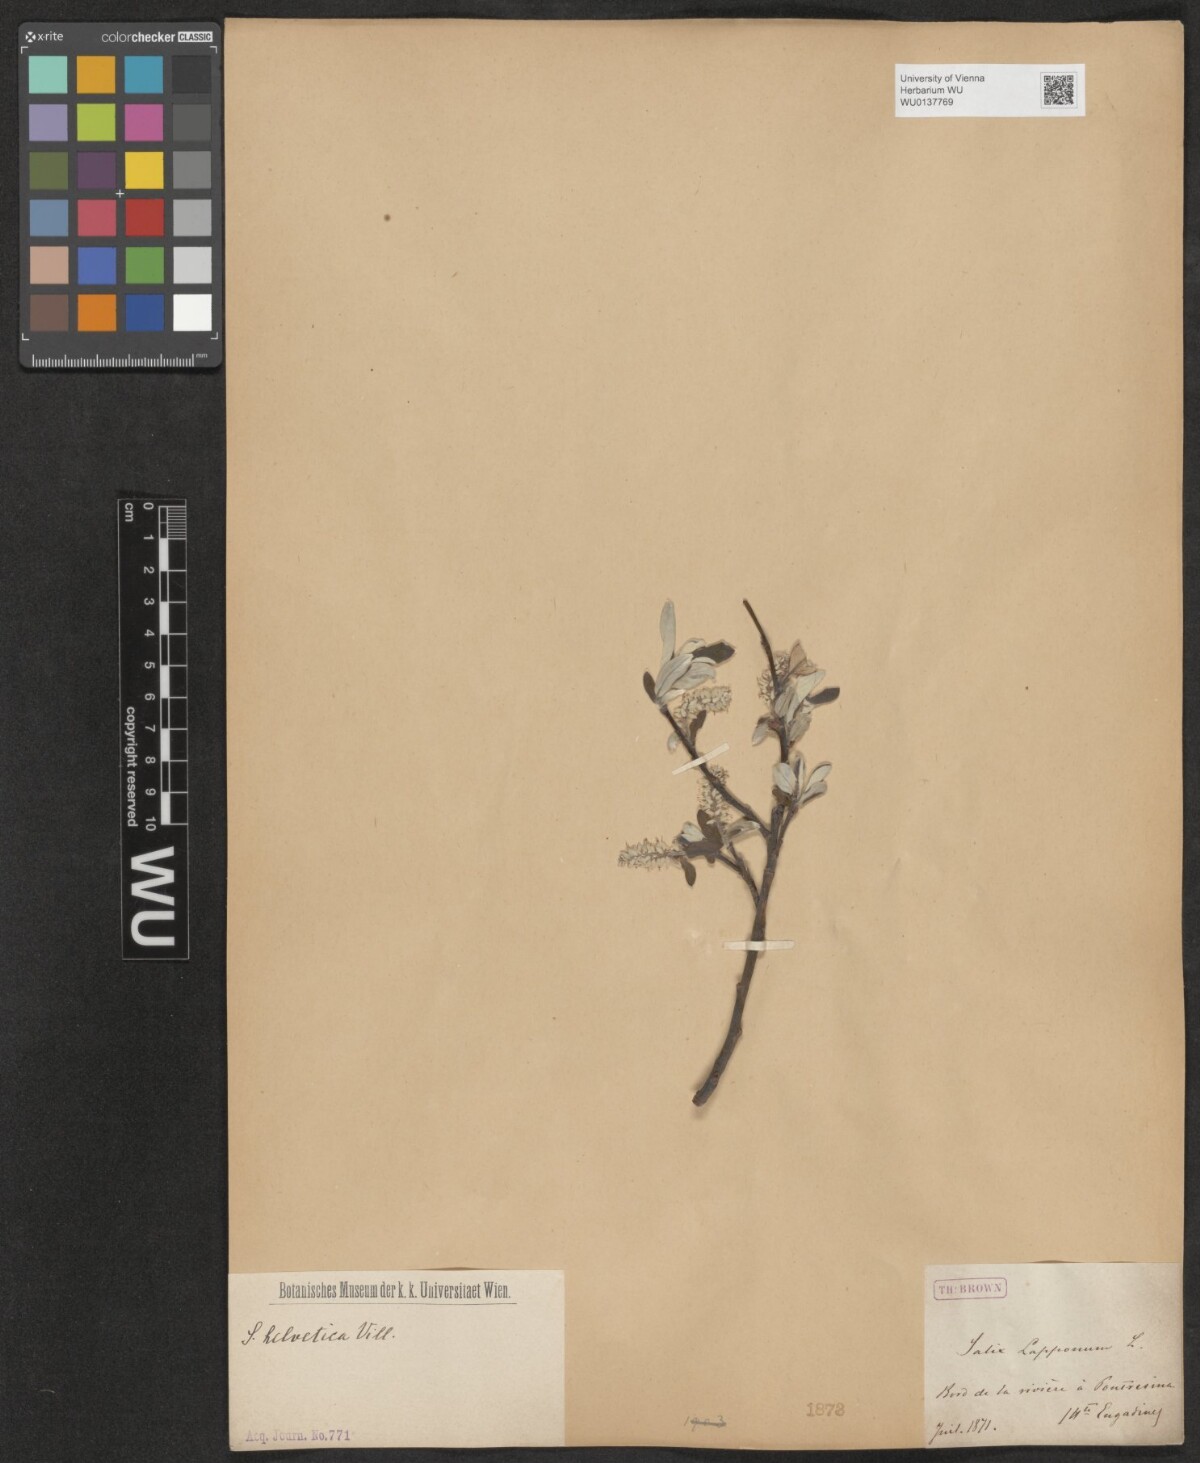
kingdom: Plantae
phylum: Tracheophyta
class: Magnoliopsida
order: Malpighiales
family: Salicaceae
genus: Salix
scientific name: Salix helvetica
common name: Swiss willow
